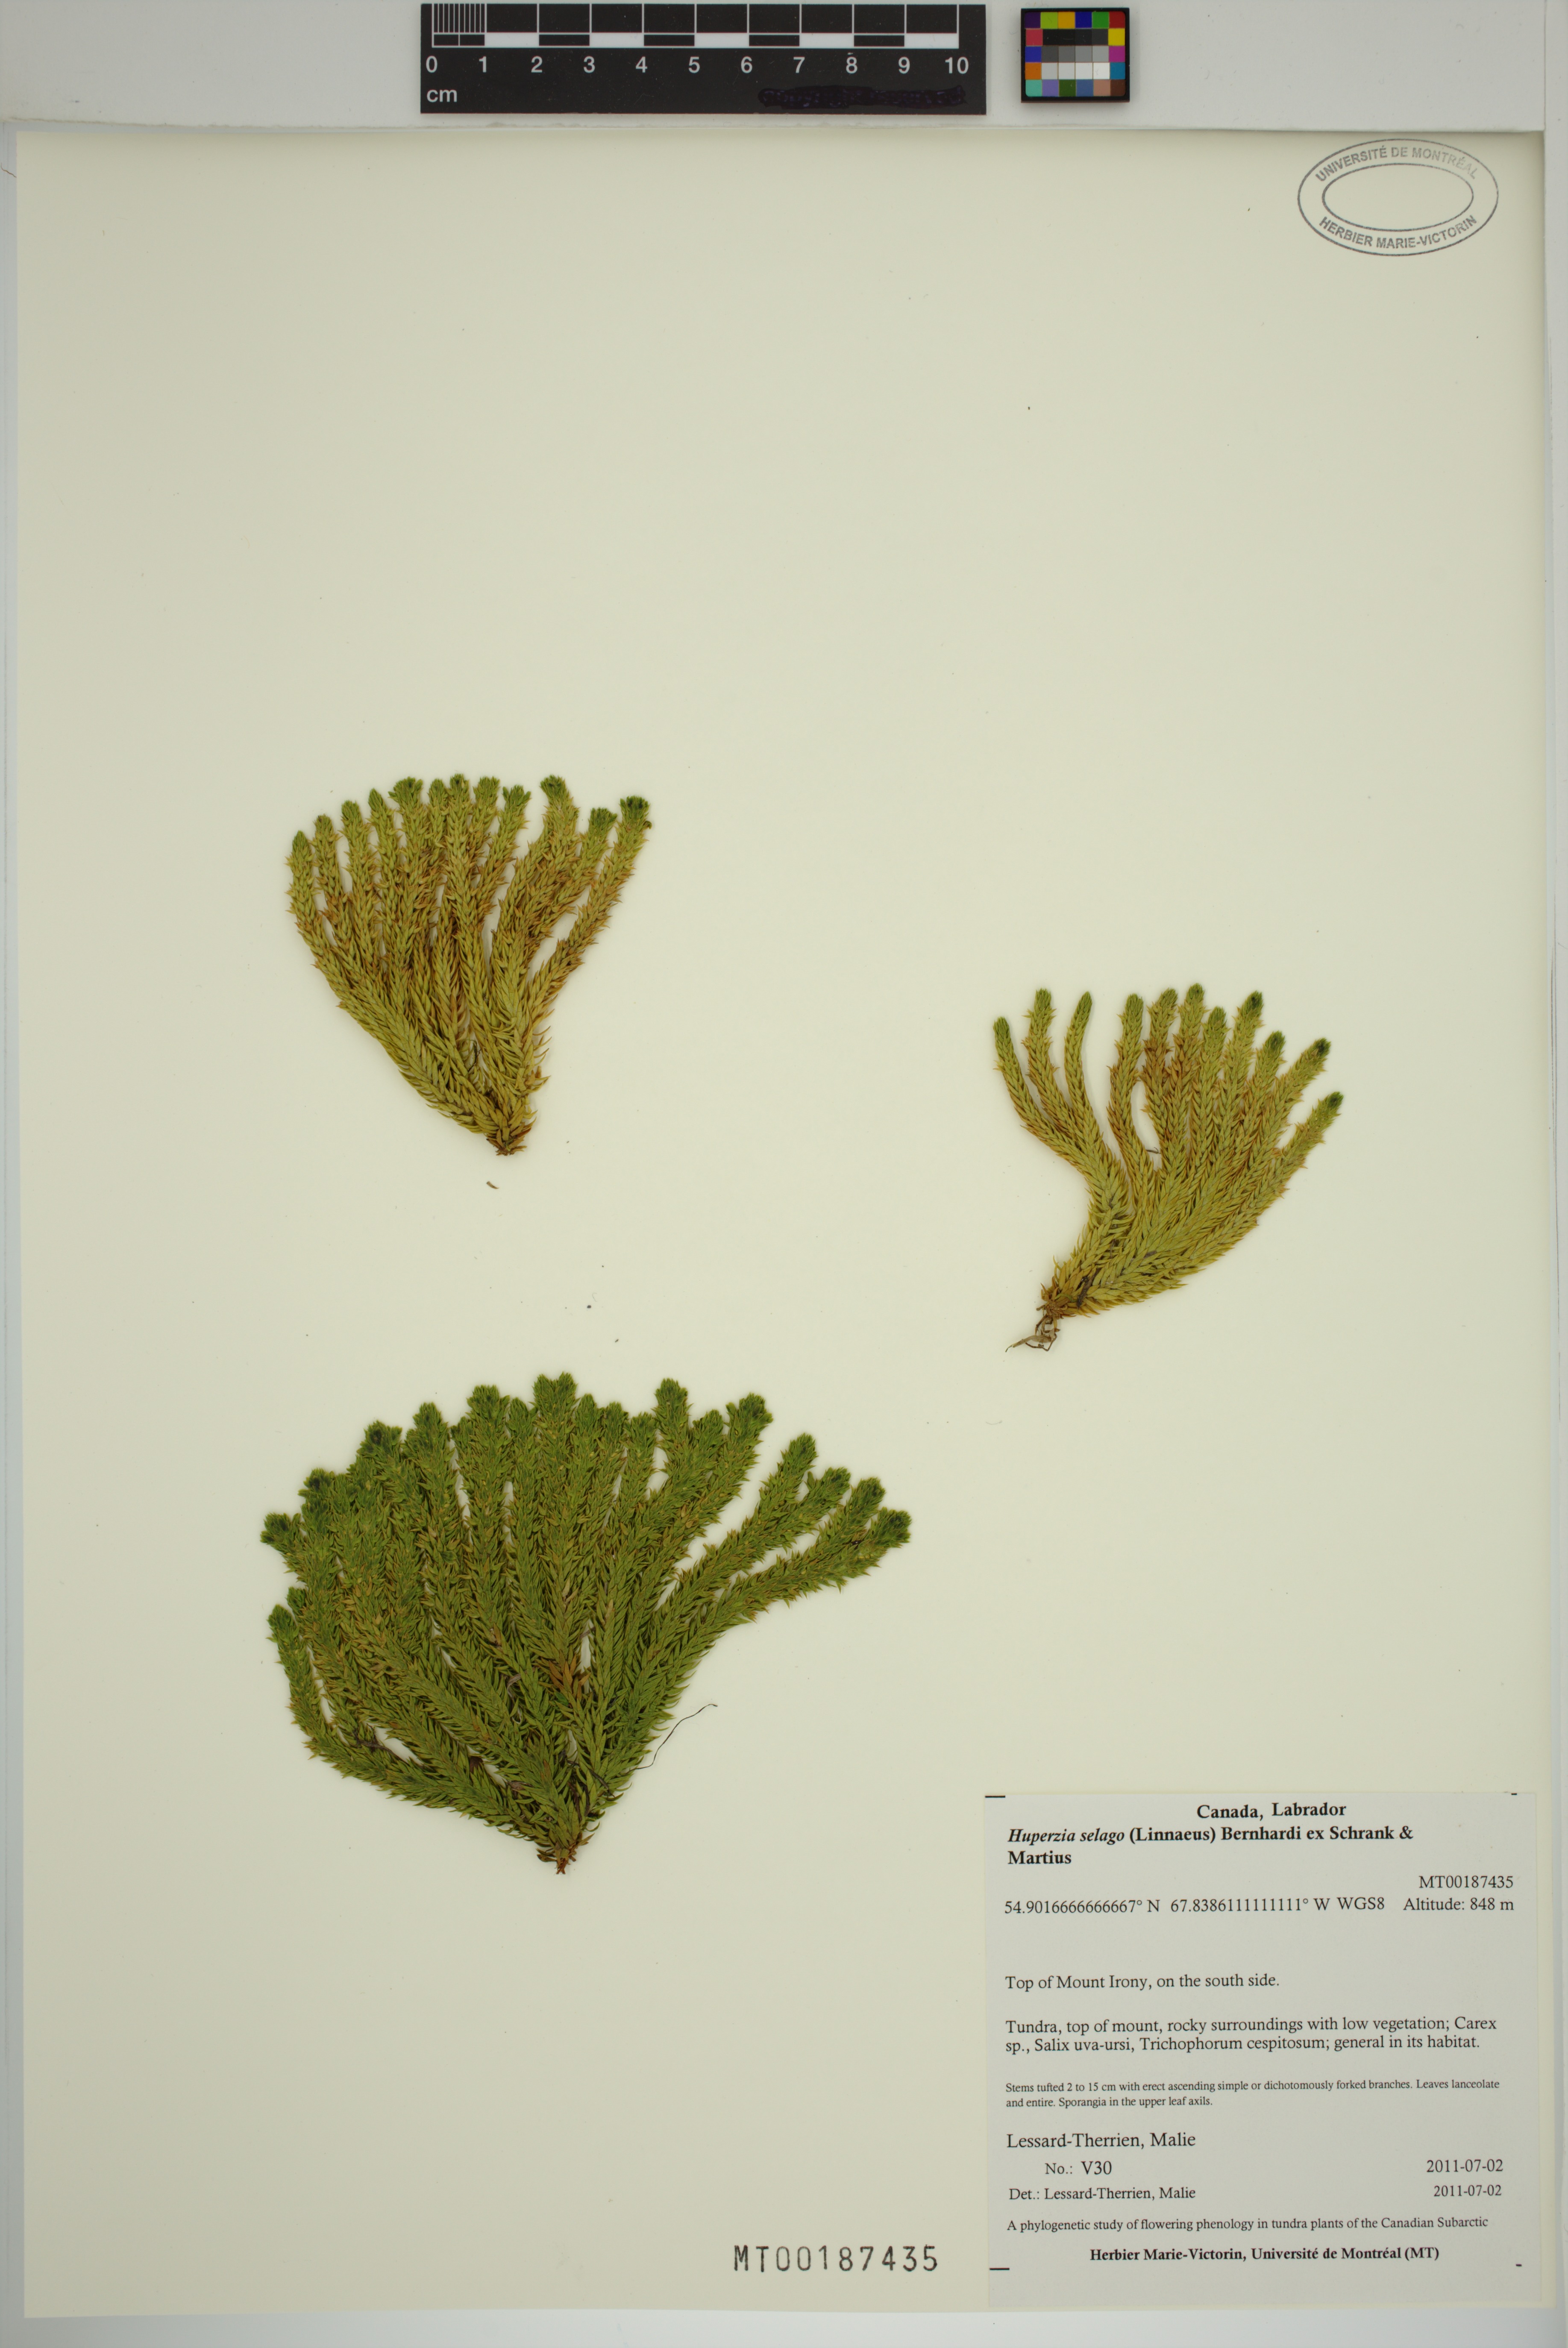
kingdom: Plantae
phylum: Tracheophyta
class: Lycopodiopsida
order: Lycopodiales
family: Lycopodiaceae
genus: Huperzia
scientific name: Huperzia selago
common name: Northern firmoss
